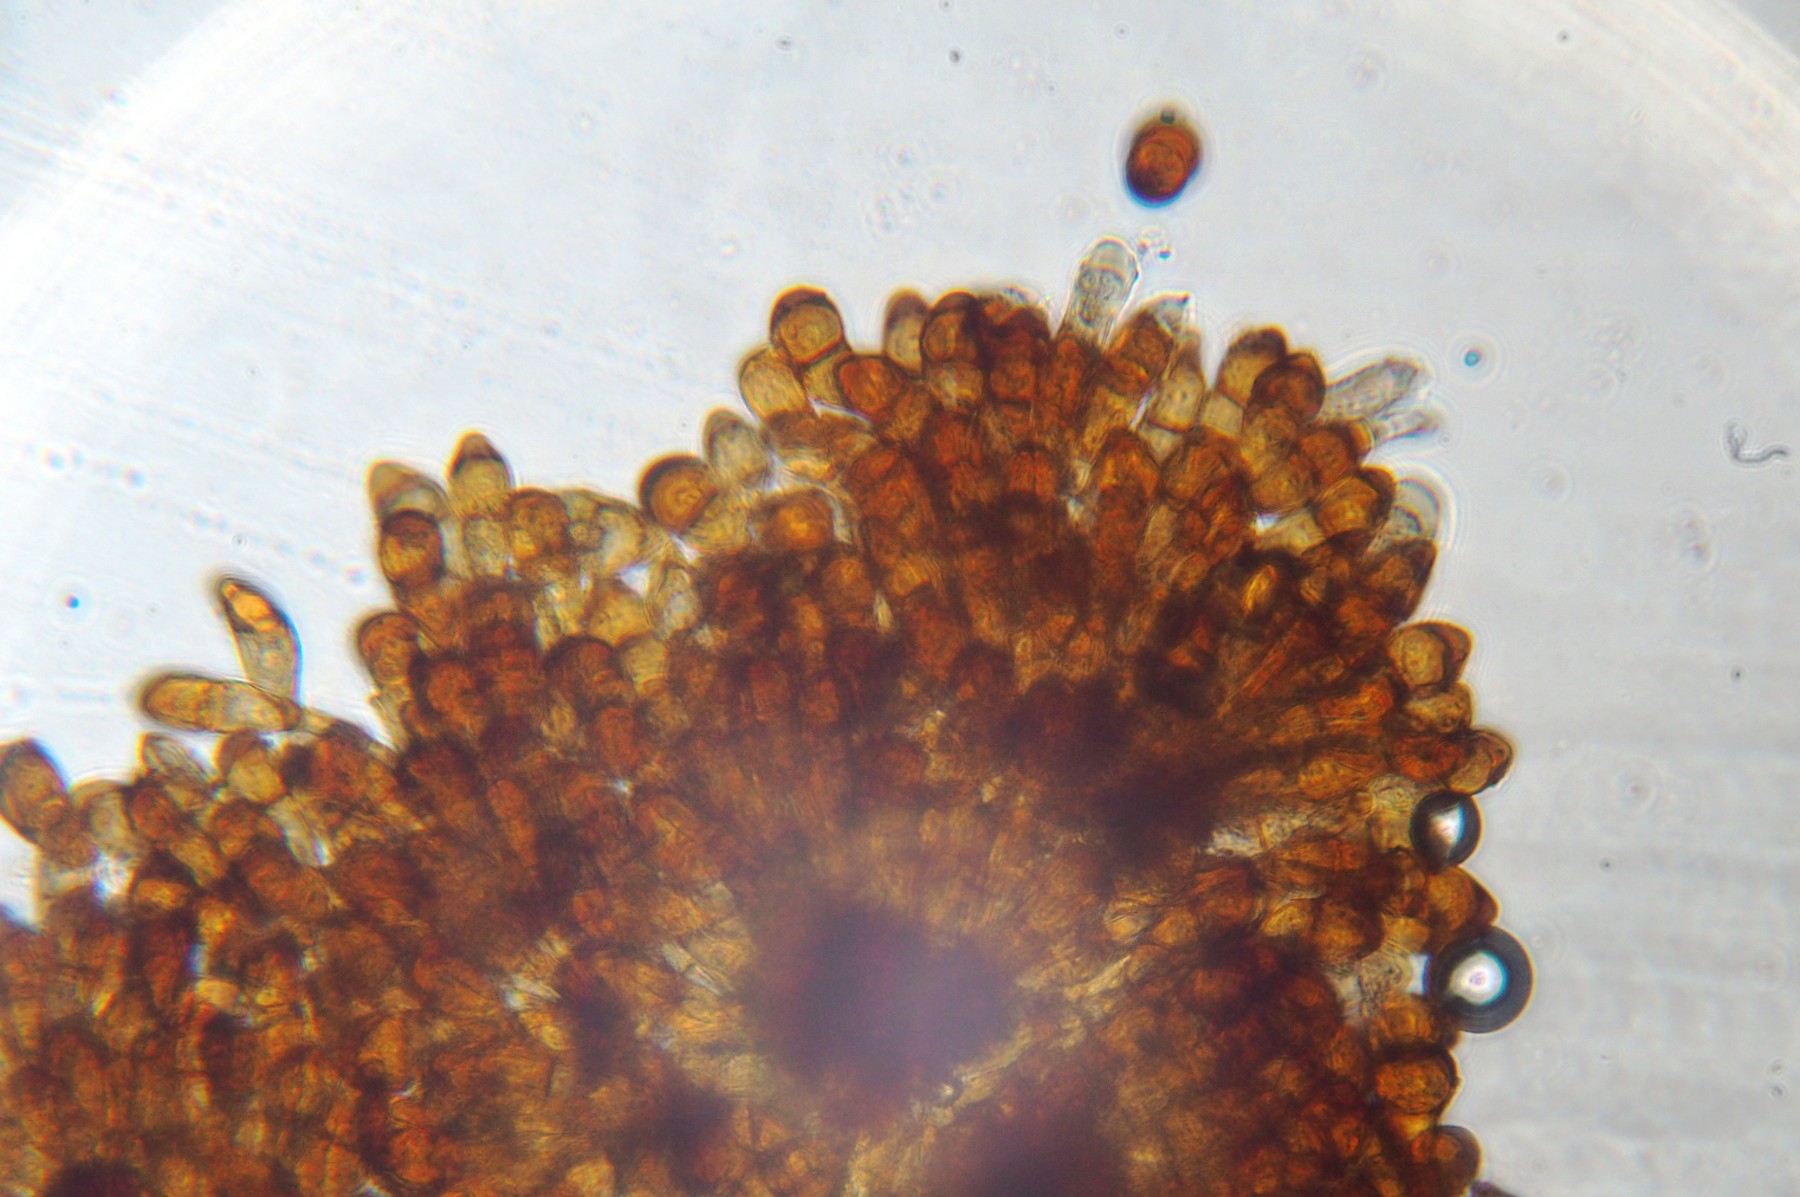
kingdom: Fungi
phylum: Basidiomycota
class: Pucciniomycetes
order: Pucciniales
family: Pucciniaceae
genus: Puccinia
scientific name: Puccinia phragmitis
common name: tagrør-tvecellerust
